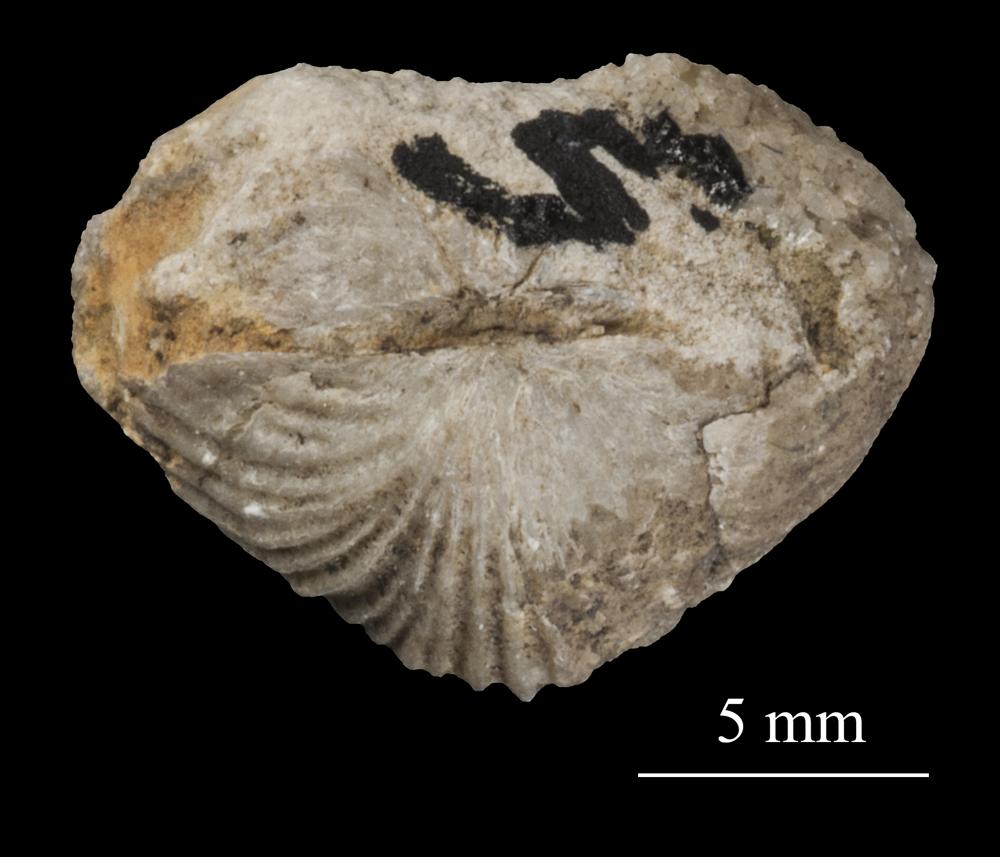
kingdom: Animalia
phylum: Brachiopoda
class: Rhynchonellata
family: Triplesiidae
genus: Cliftonia
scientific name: Cliftonia
